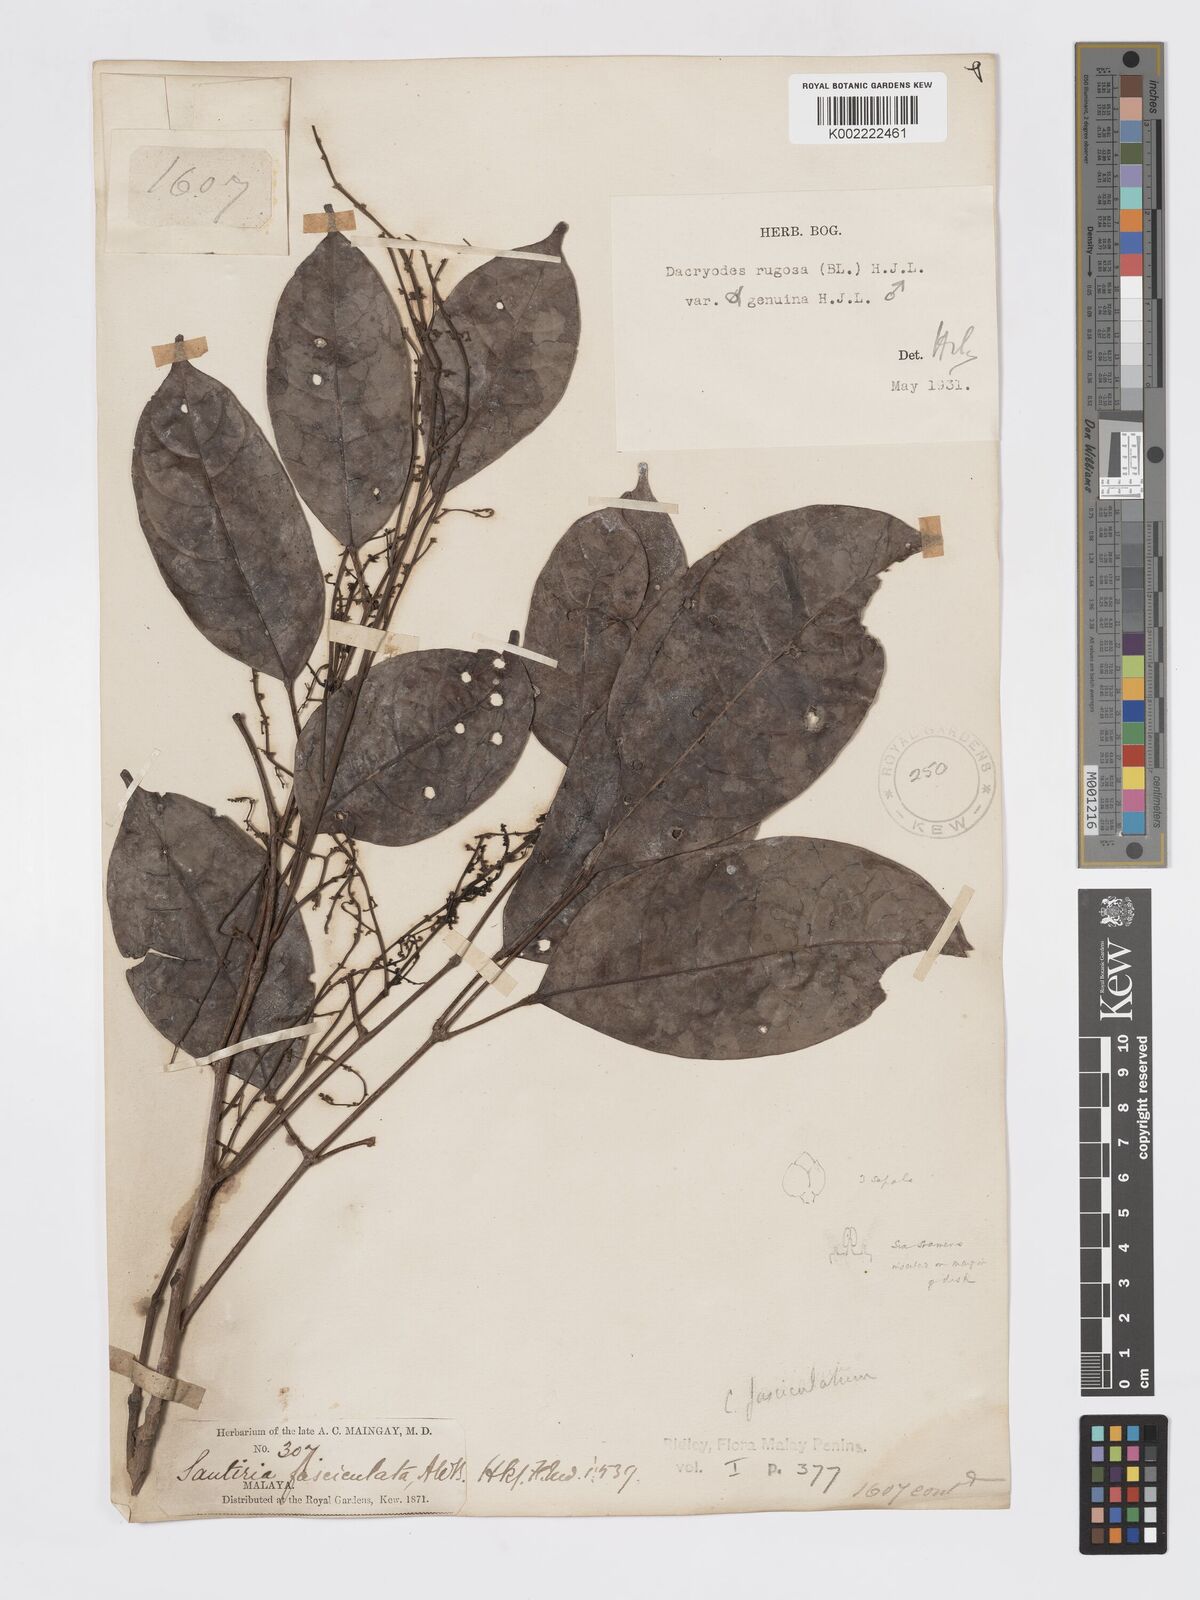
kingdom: Plantae
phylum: Tracheophyta
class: Magnoliopsida
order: Sapindales
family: Burseraceae
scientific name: Burseraceae
